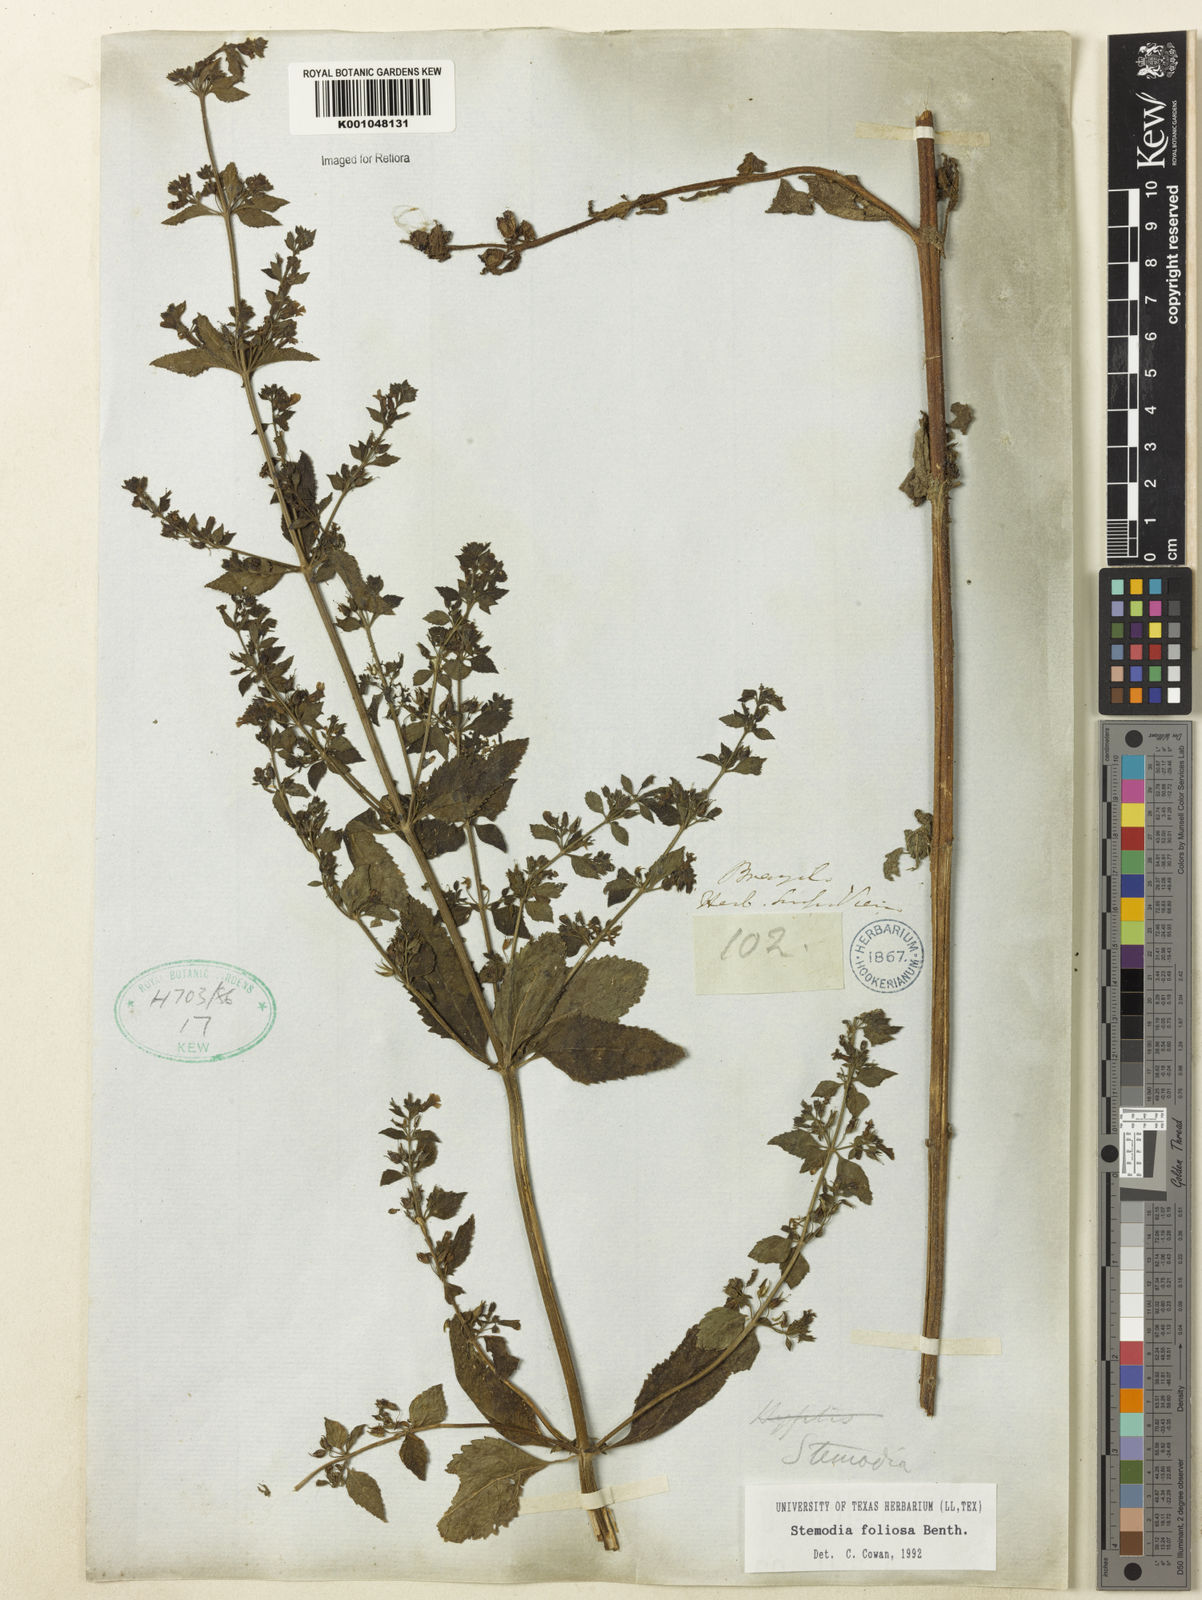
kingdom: Plantae
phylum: Tracheophyta
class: Magnoliopsida
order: Lamiales
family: Plantaginaceae
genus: Stemodia
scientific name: Stemodia foliosa
